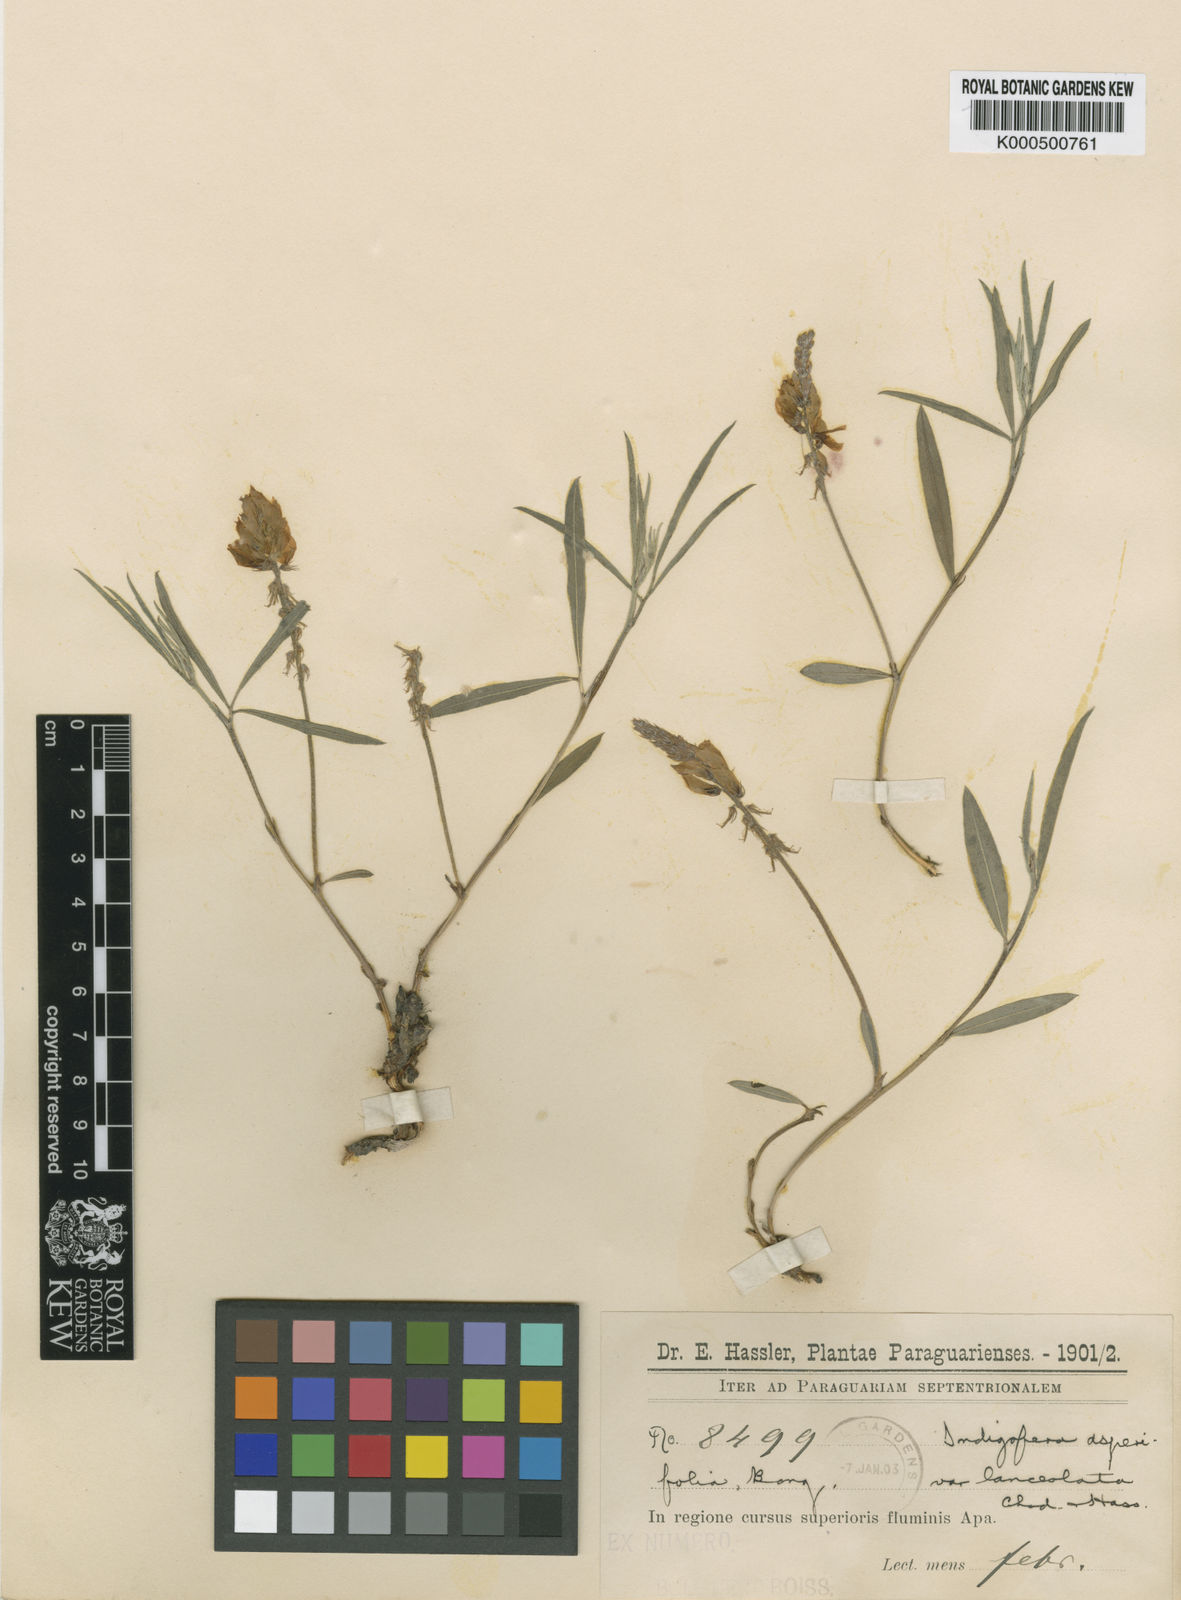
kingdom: Plantae
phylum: Tracheophyta
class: Magnoliopsida
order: Fabales
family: Fabaceae
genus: Indigofera
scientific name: Indigofera asperifolia
